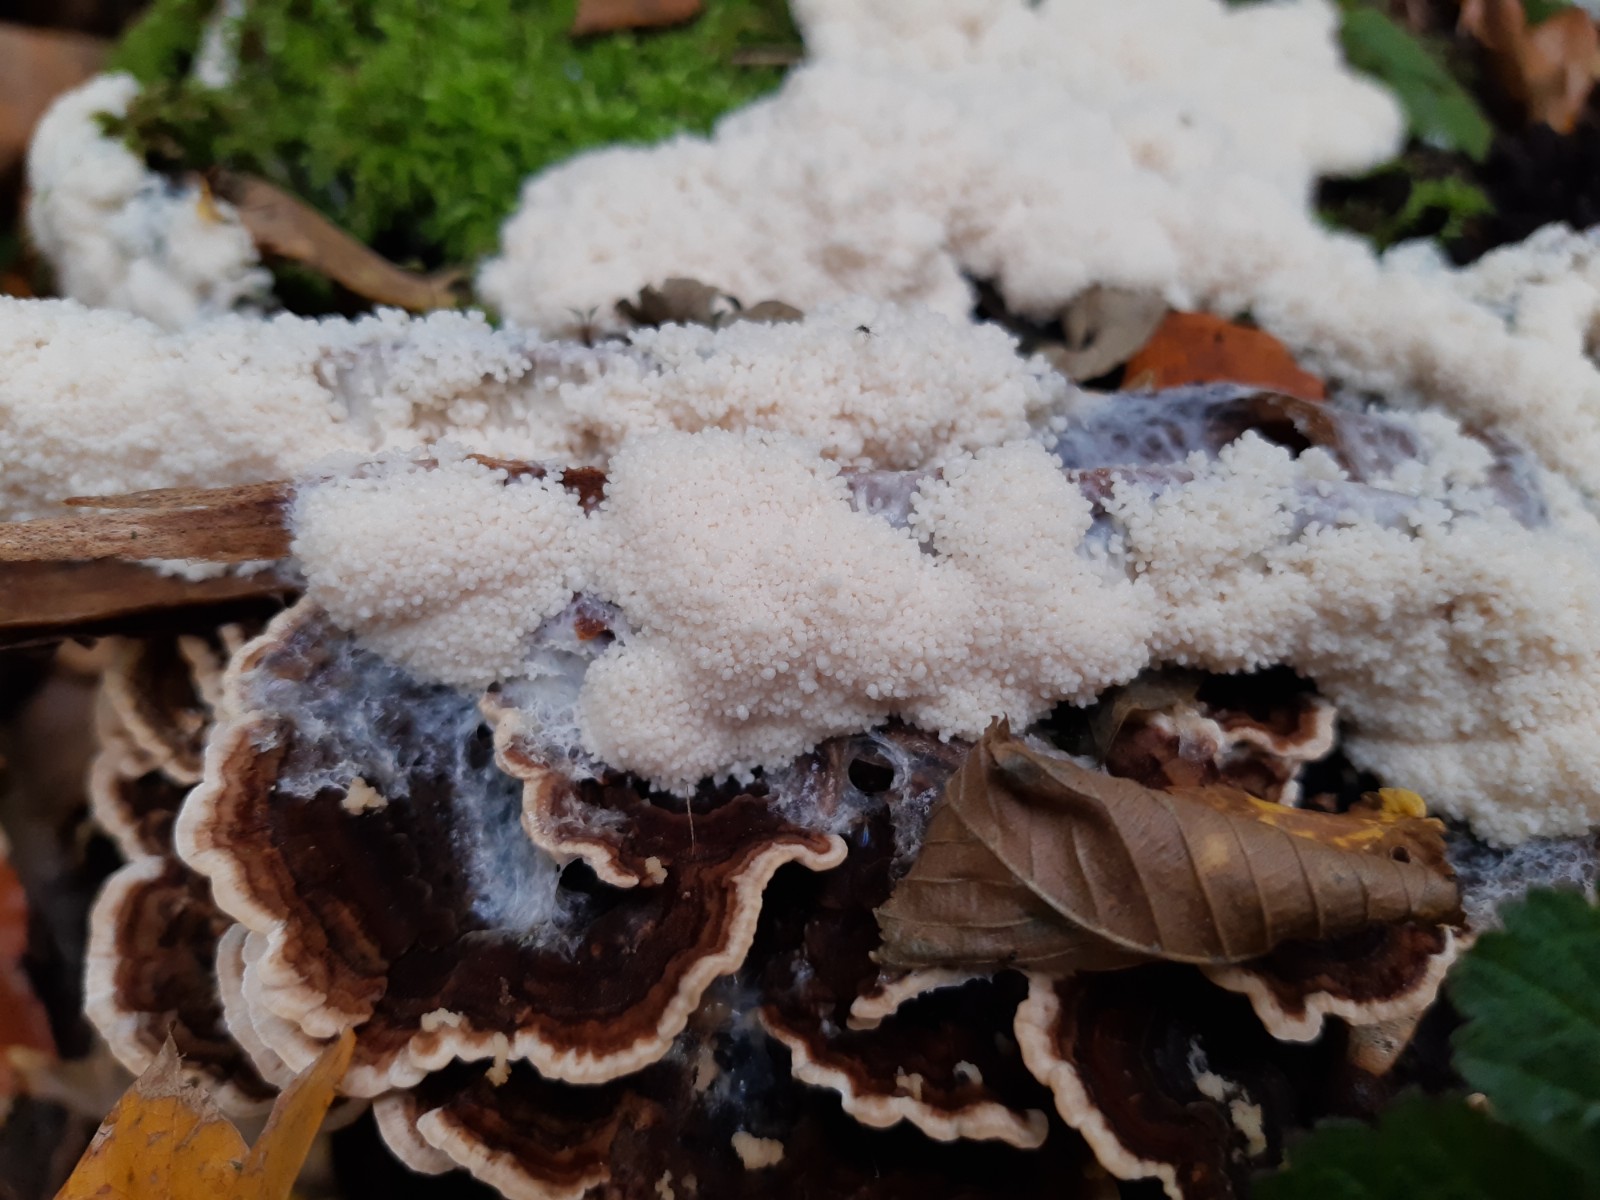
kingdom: Protozoa
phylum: Mycetozoa
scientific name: Mycetozoa
